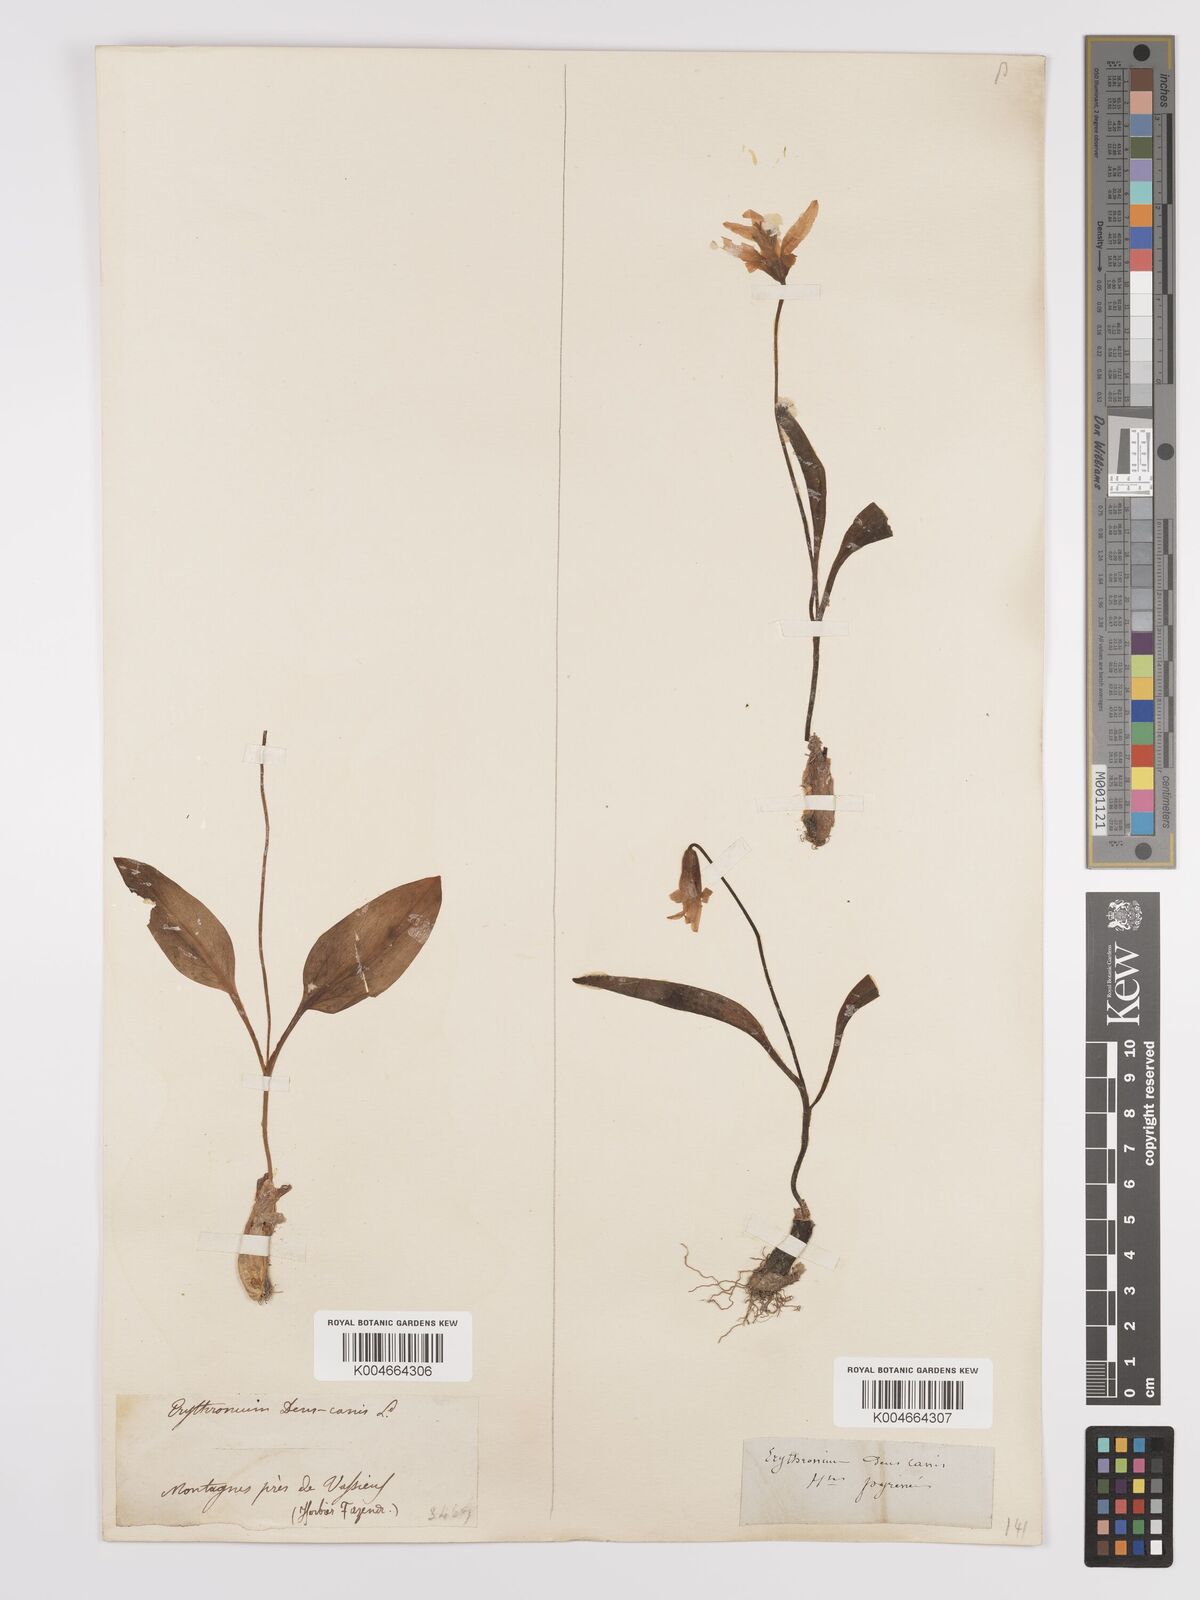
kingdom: Plantae
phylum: Tracheophyta
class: Liliopsida
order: Liliales
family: Liliaceae
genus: Erythronium
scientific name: Erythronium dens-canis
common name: Dog's-tooth-violet
